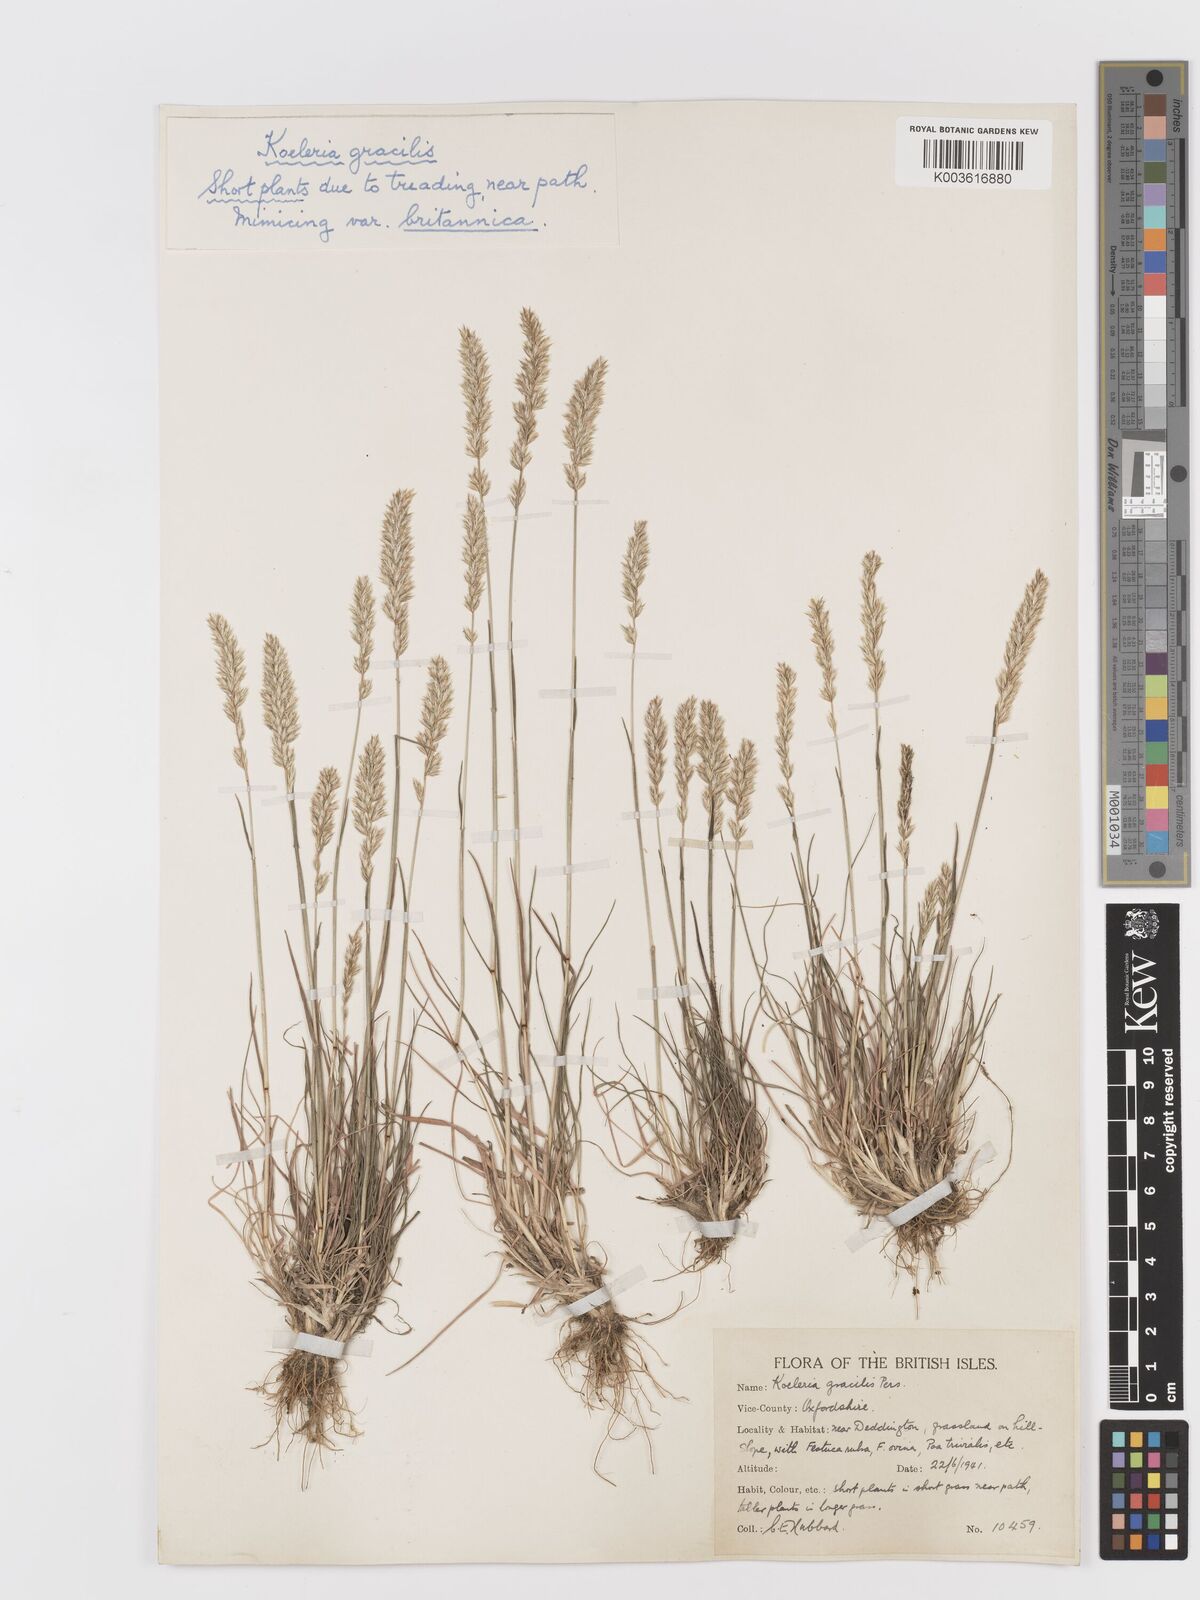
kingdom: Plantae
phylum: Tracheophyta
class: Liliopsida
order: Poales
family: Poaceae
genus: Koeleria
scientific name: Koeleria macrantha
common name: Crested hair-grass
